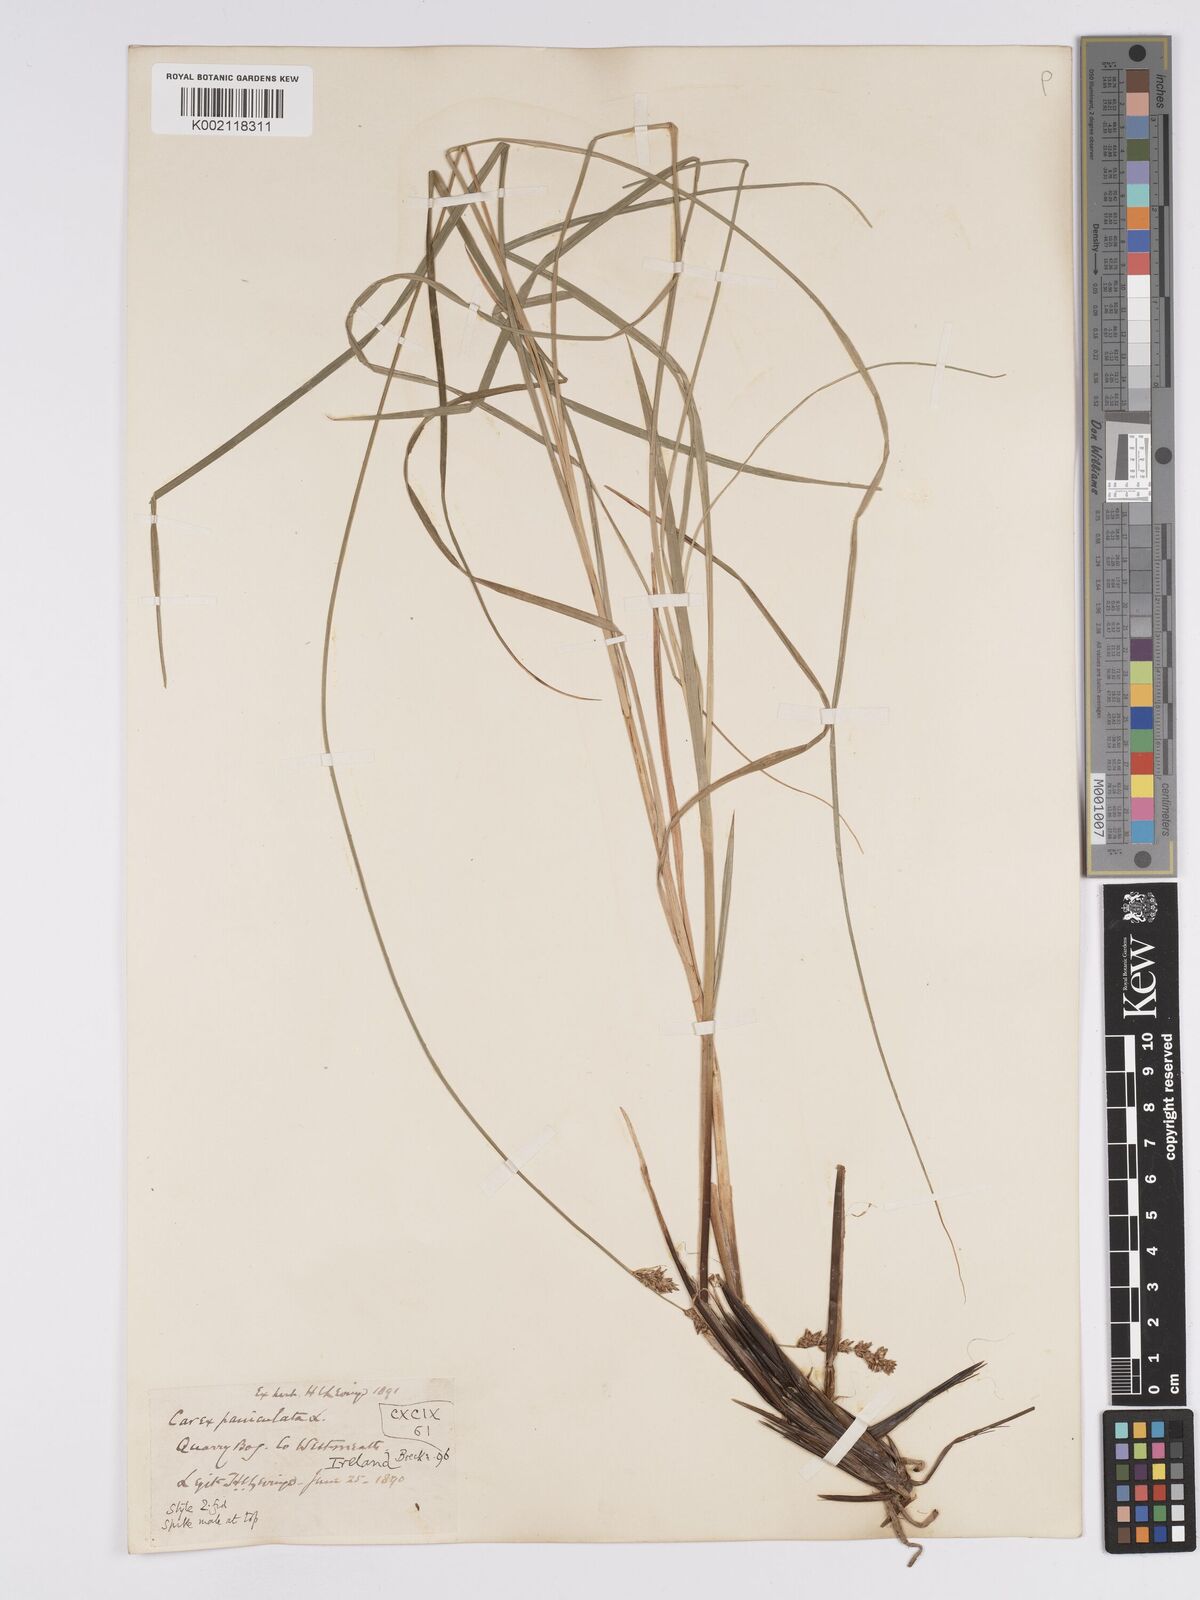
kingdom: Plantae
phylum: Tracheophyta
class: Liliopsida
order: Poales
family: Cyperaceae
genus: Carex
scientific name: Carex paniculata
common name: Greater tussock-sedge
